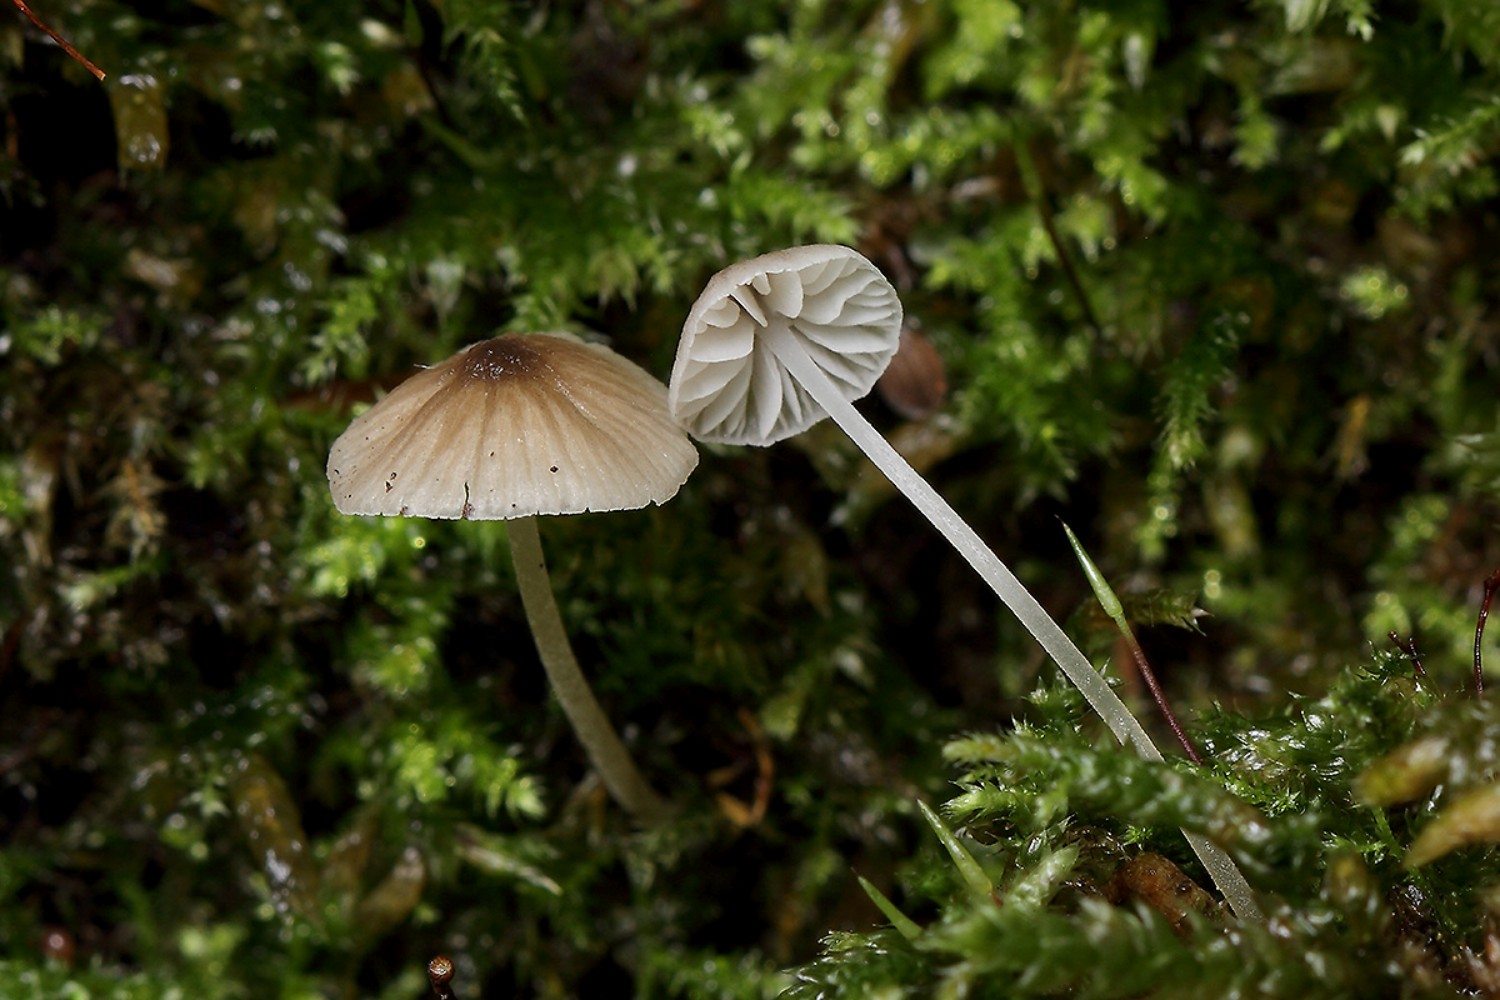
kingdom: Fungi
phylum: Basidiomycota
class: Agaricomycetes
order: Agaricales
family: Porotheleaceae
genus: Phloeomana
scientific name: Phloeomana hiemalis
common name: sen huesvamp
